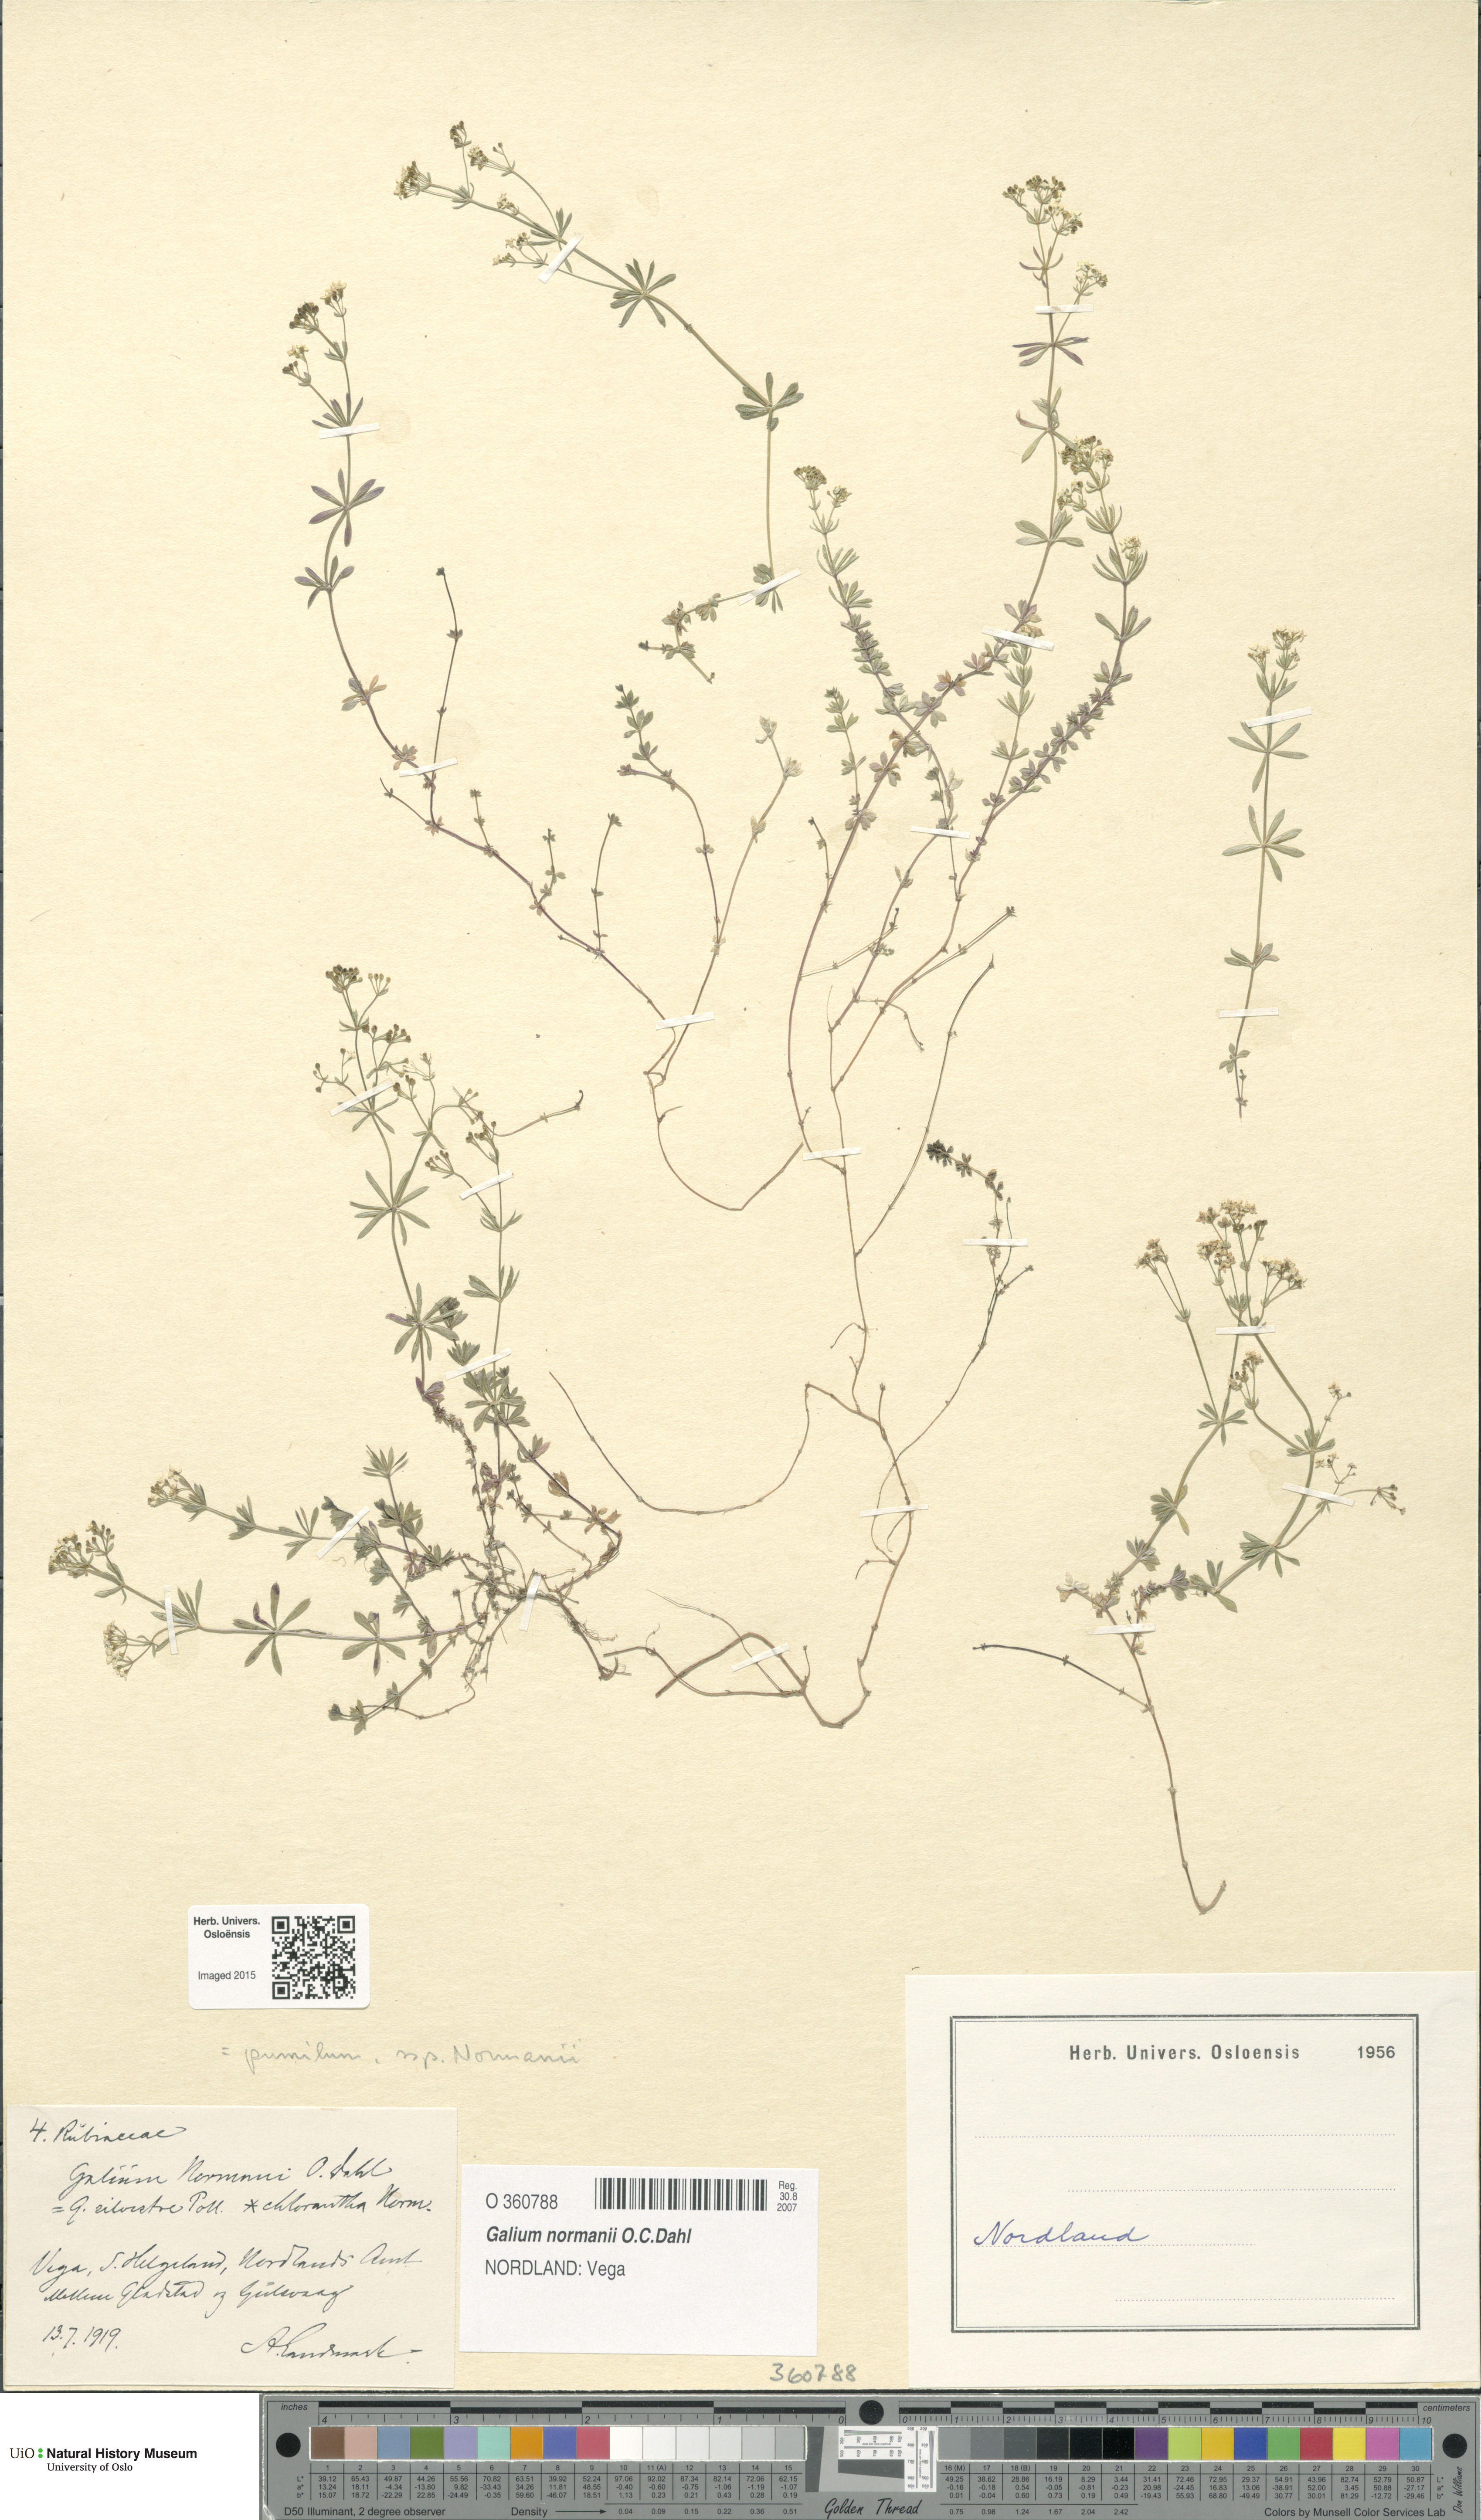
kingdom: Plantae
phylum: Tracheophyta
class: Magnoliopsida
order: Gentianales
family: Rubiaceae
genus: Galium
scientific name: Galium normanii
